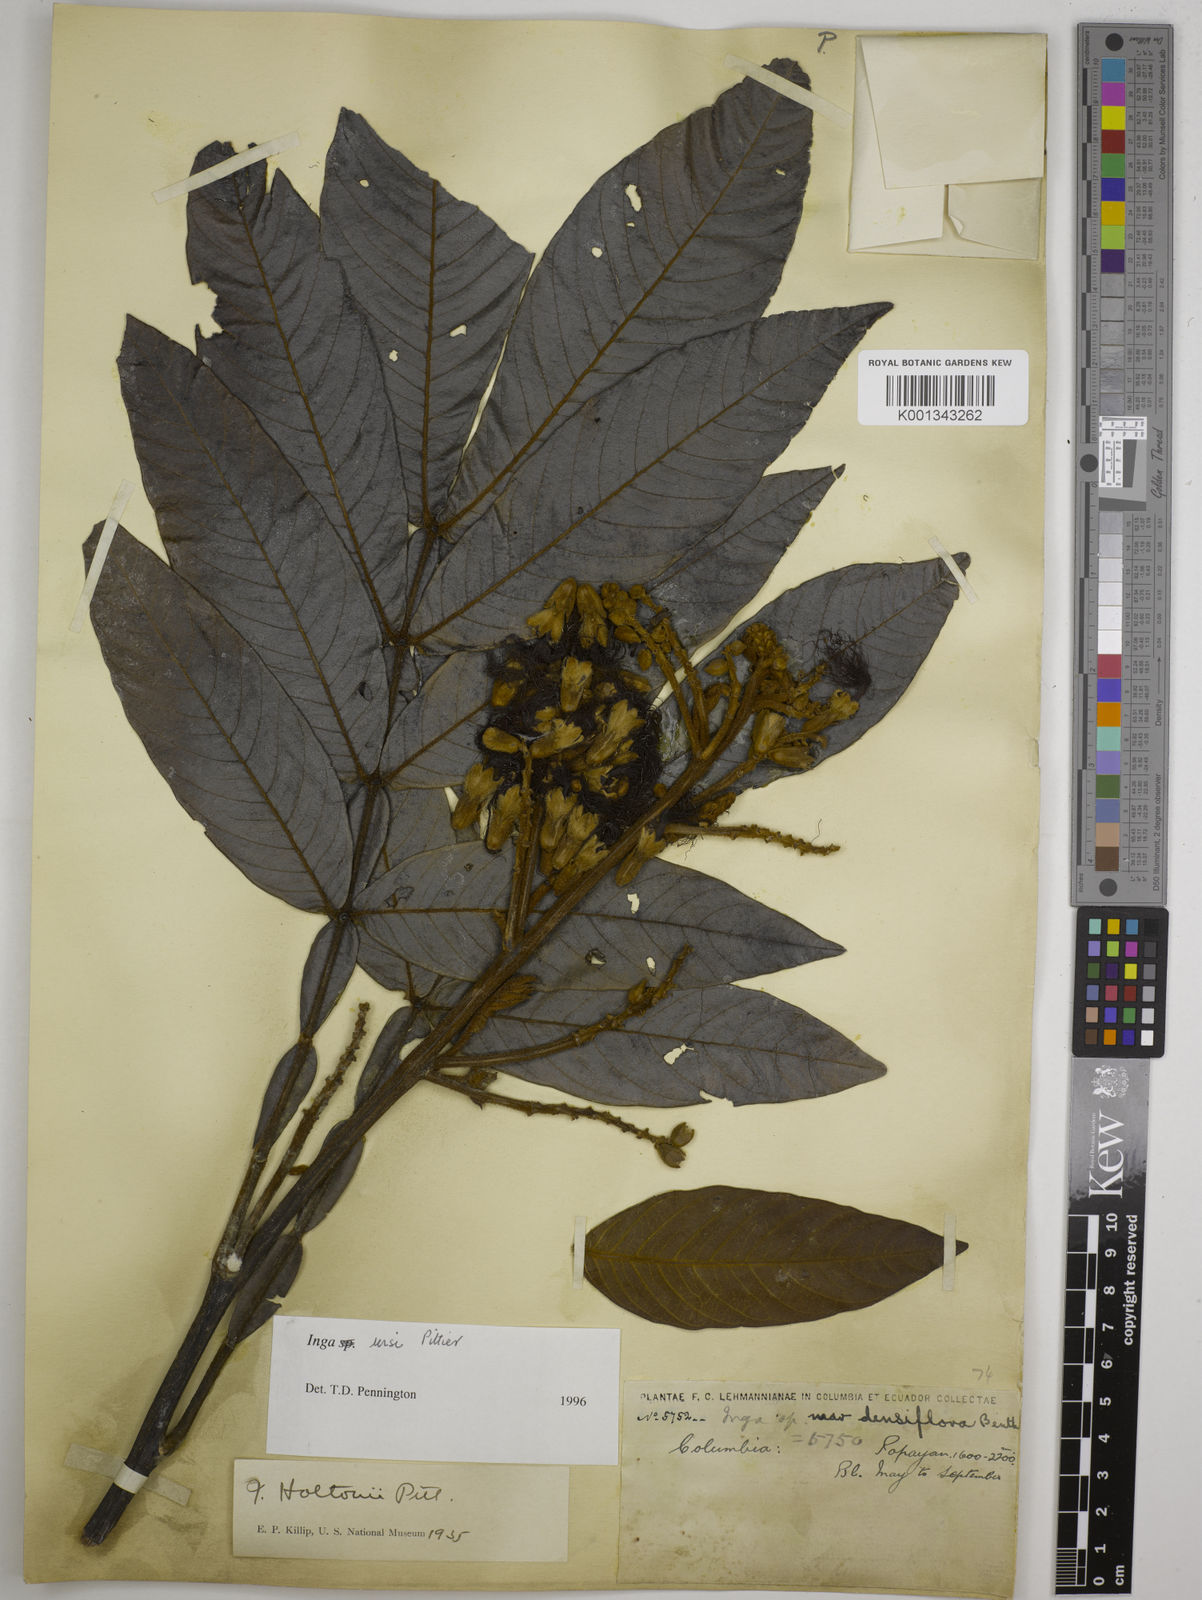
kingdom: Plantae
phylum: Tracheophyta
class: Magnoliopsida
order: Fabales
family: Fabaceae
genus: Inga
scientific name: Inga ursi
